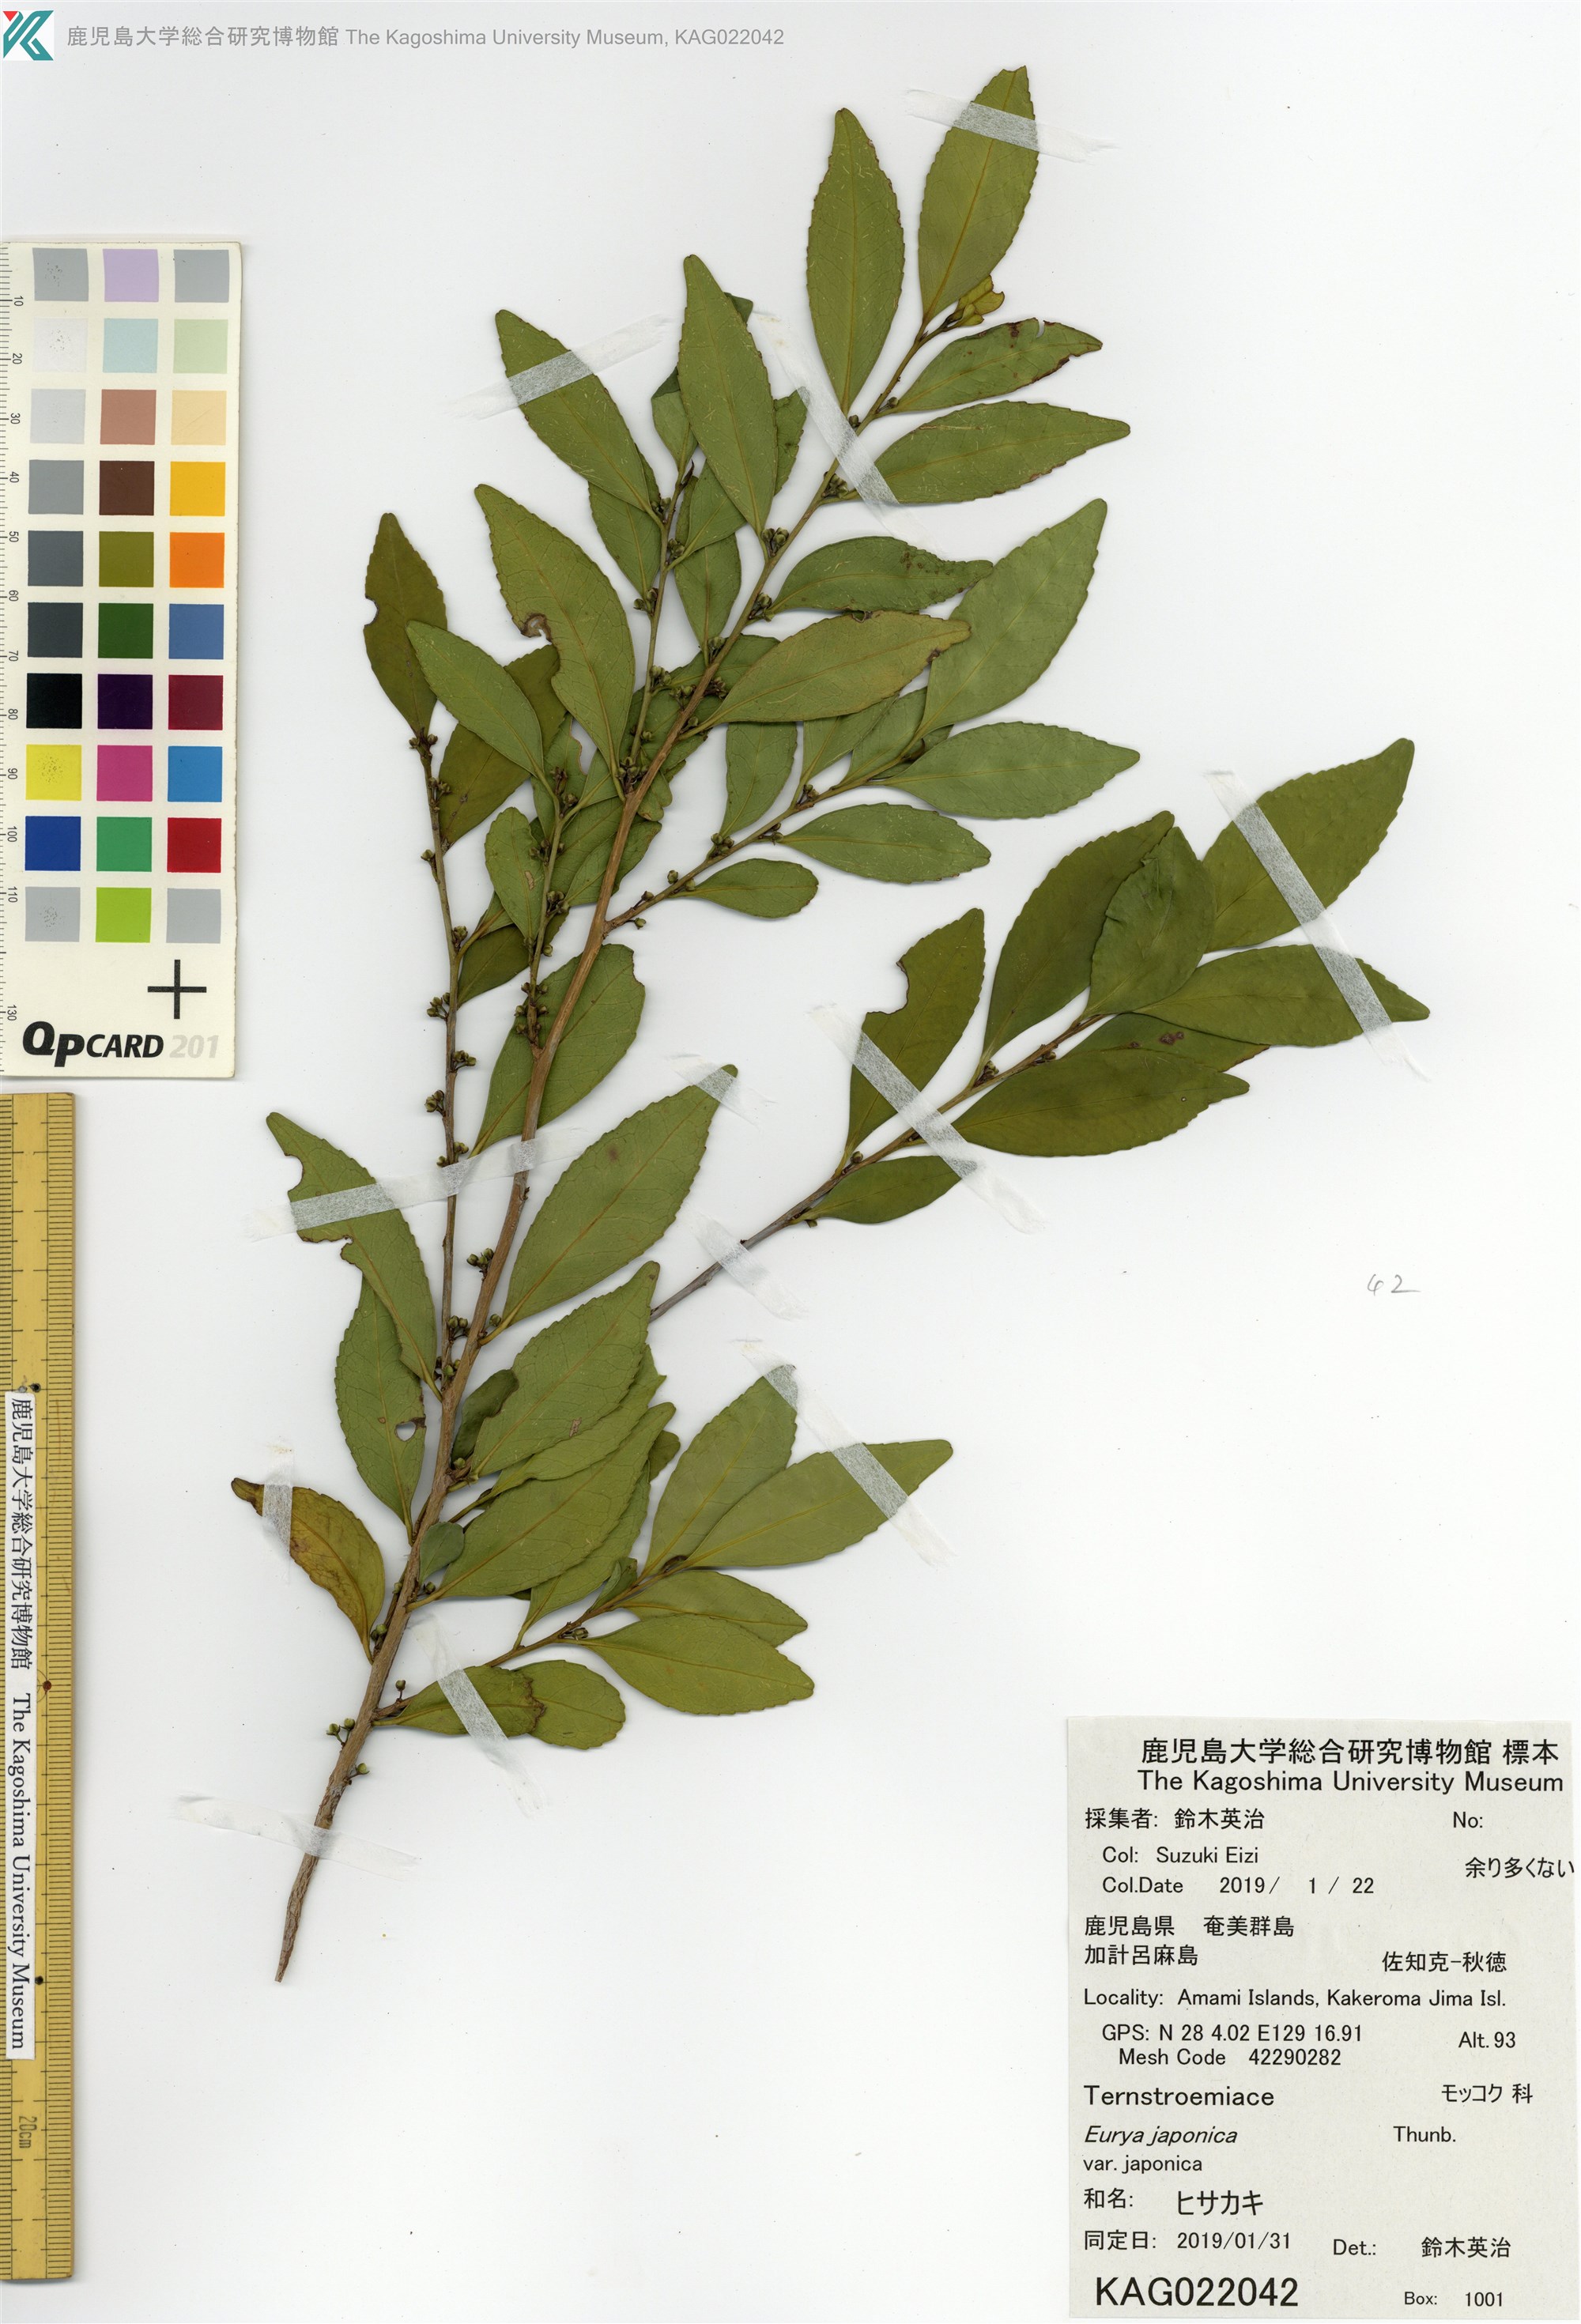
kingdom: Plantae
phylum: Tracheophyta
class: Magnoliopsida
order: Ericales
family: Pentaphylacaceae
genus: Eurya
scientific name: Eurya japonica
